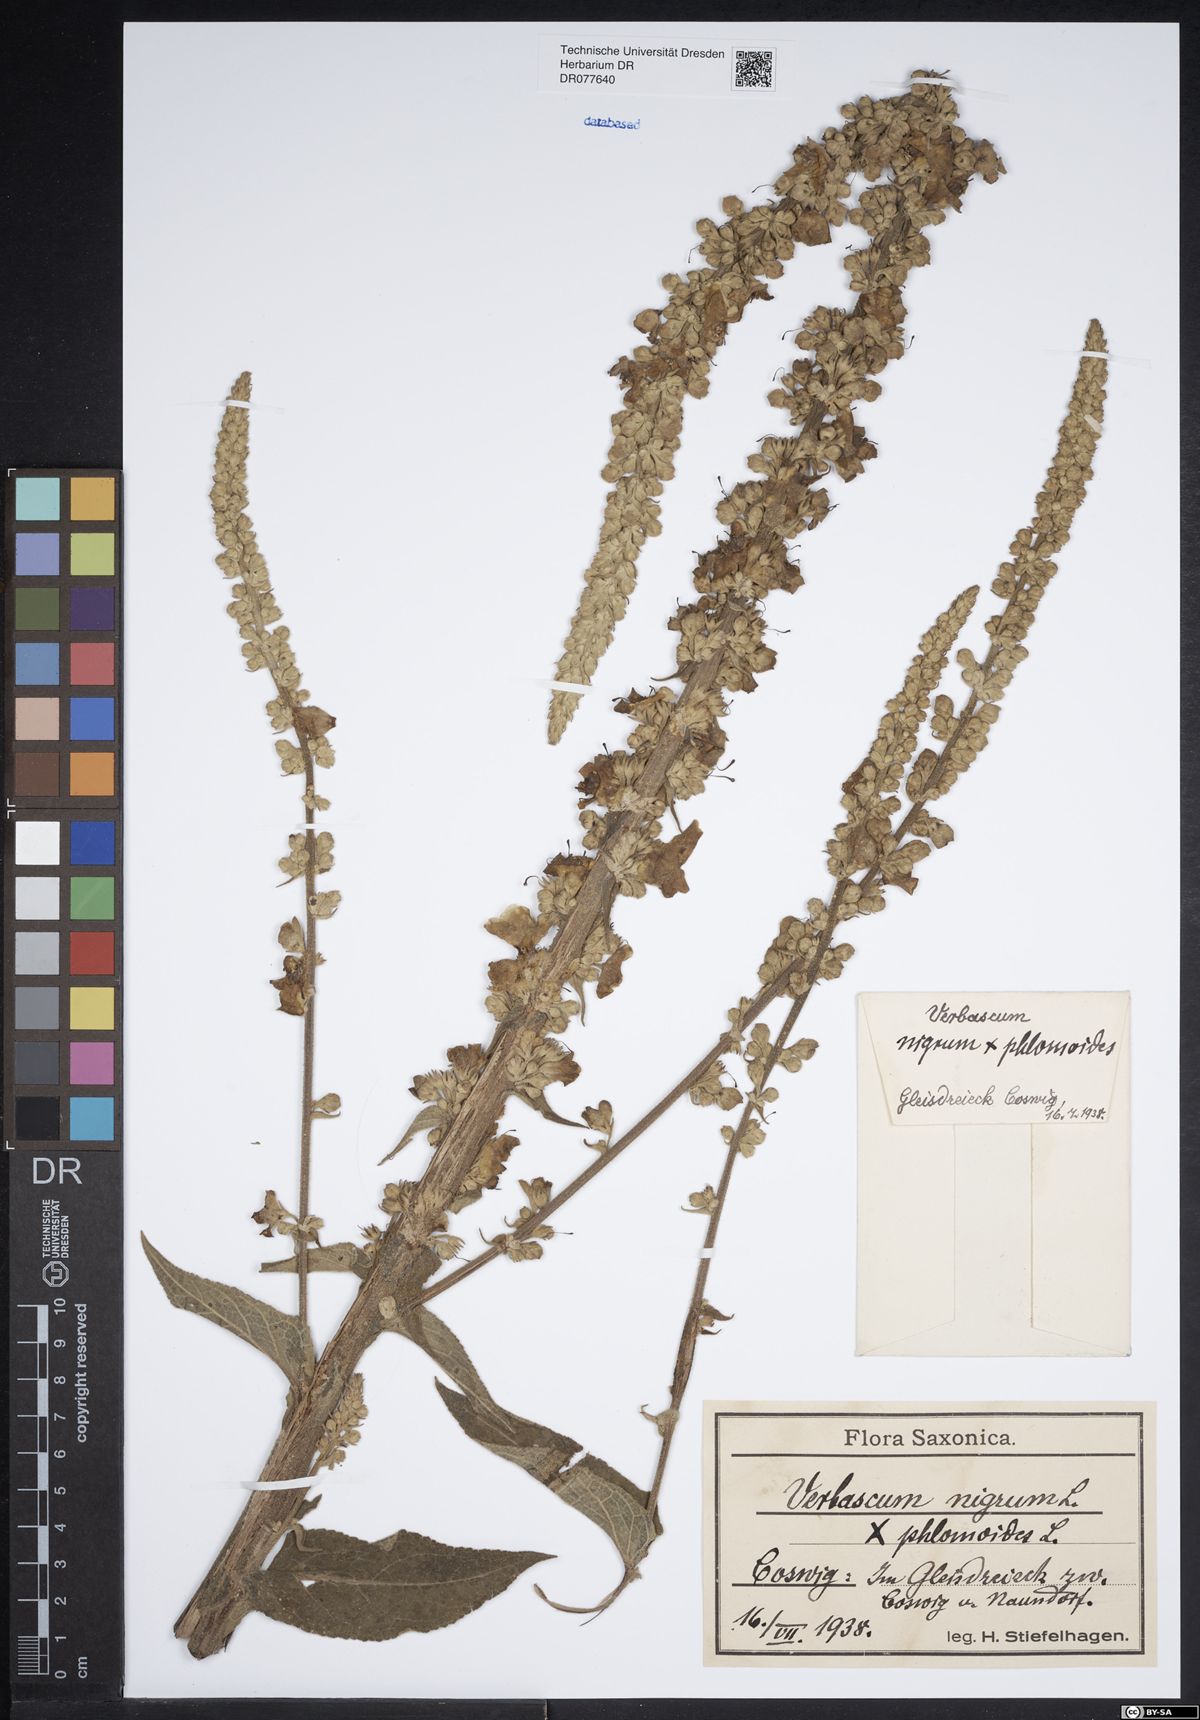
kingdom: Plantae
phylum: Tracheophyta
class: Magnoliopsida
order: Lamiales
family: Scrophulariaceae
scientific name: Scrophulariaceae
